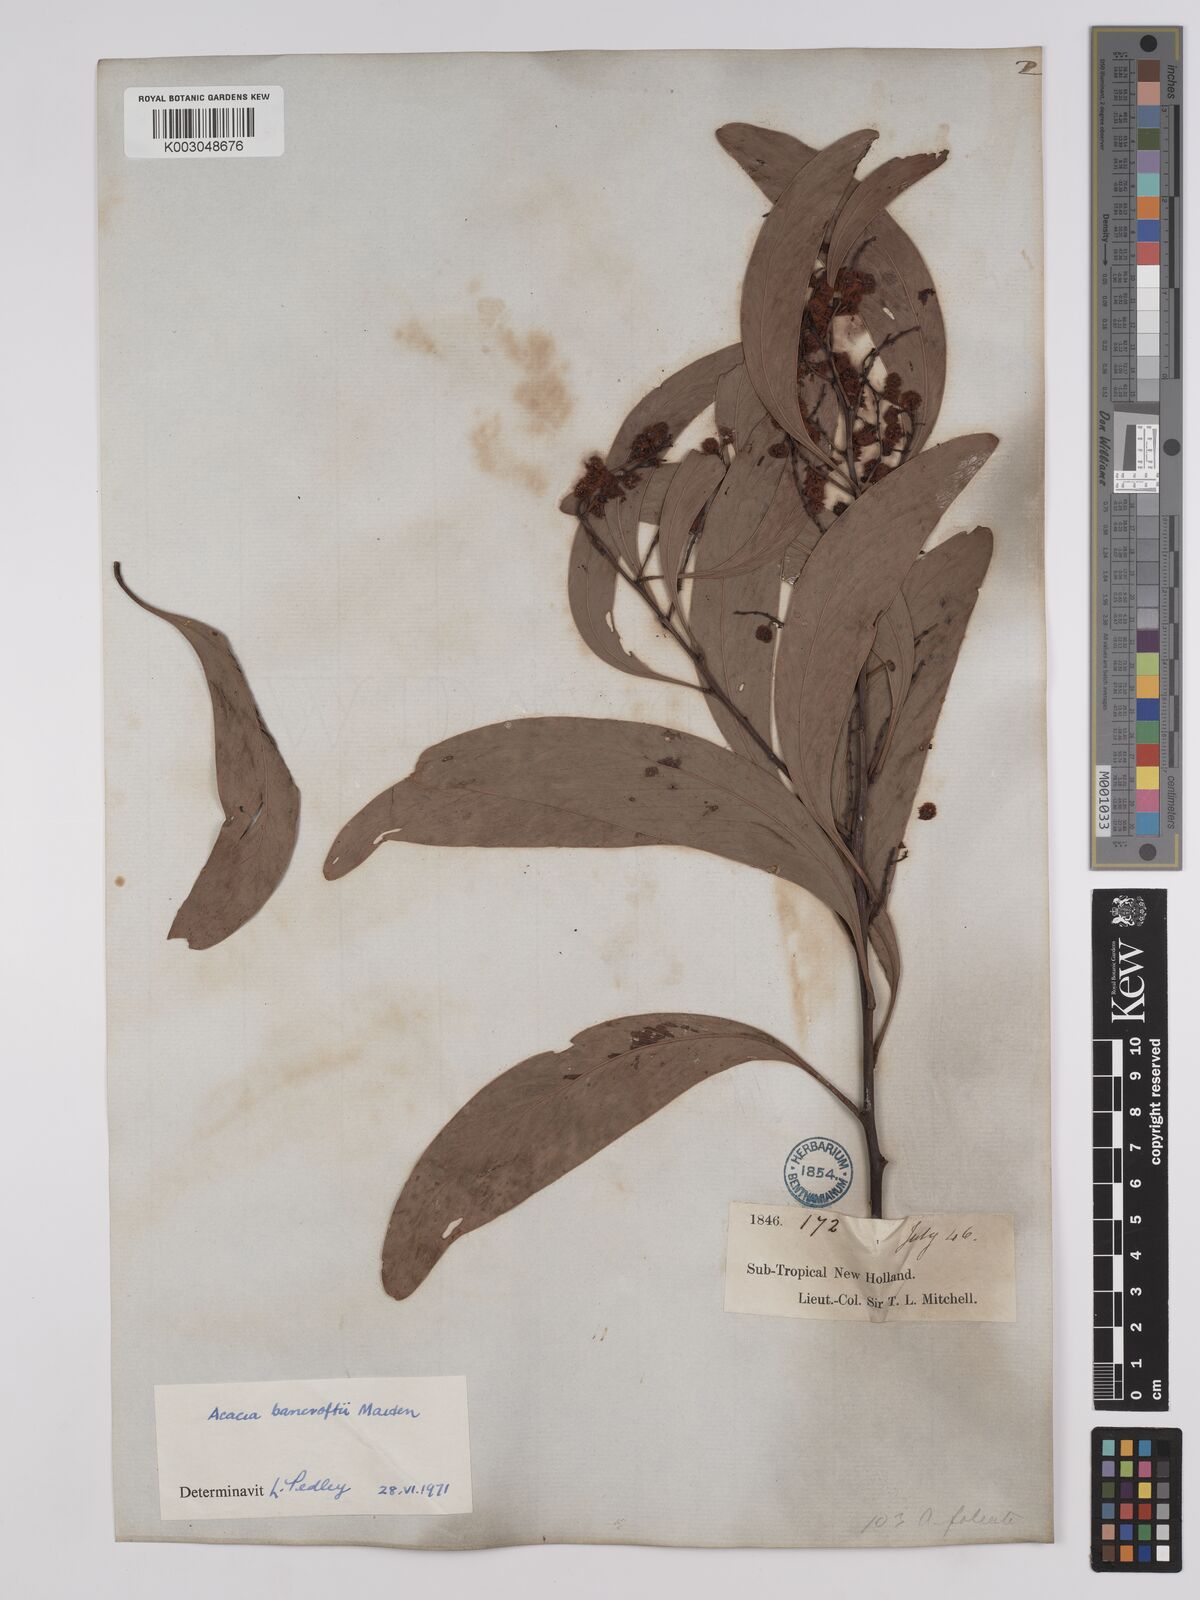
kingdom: Plantae
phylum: Tracheophyta
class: Magnoliopsida
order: Fabales
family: Fabaceae
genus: Acacia
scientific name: Acacia
